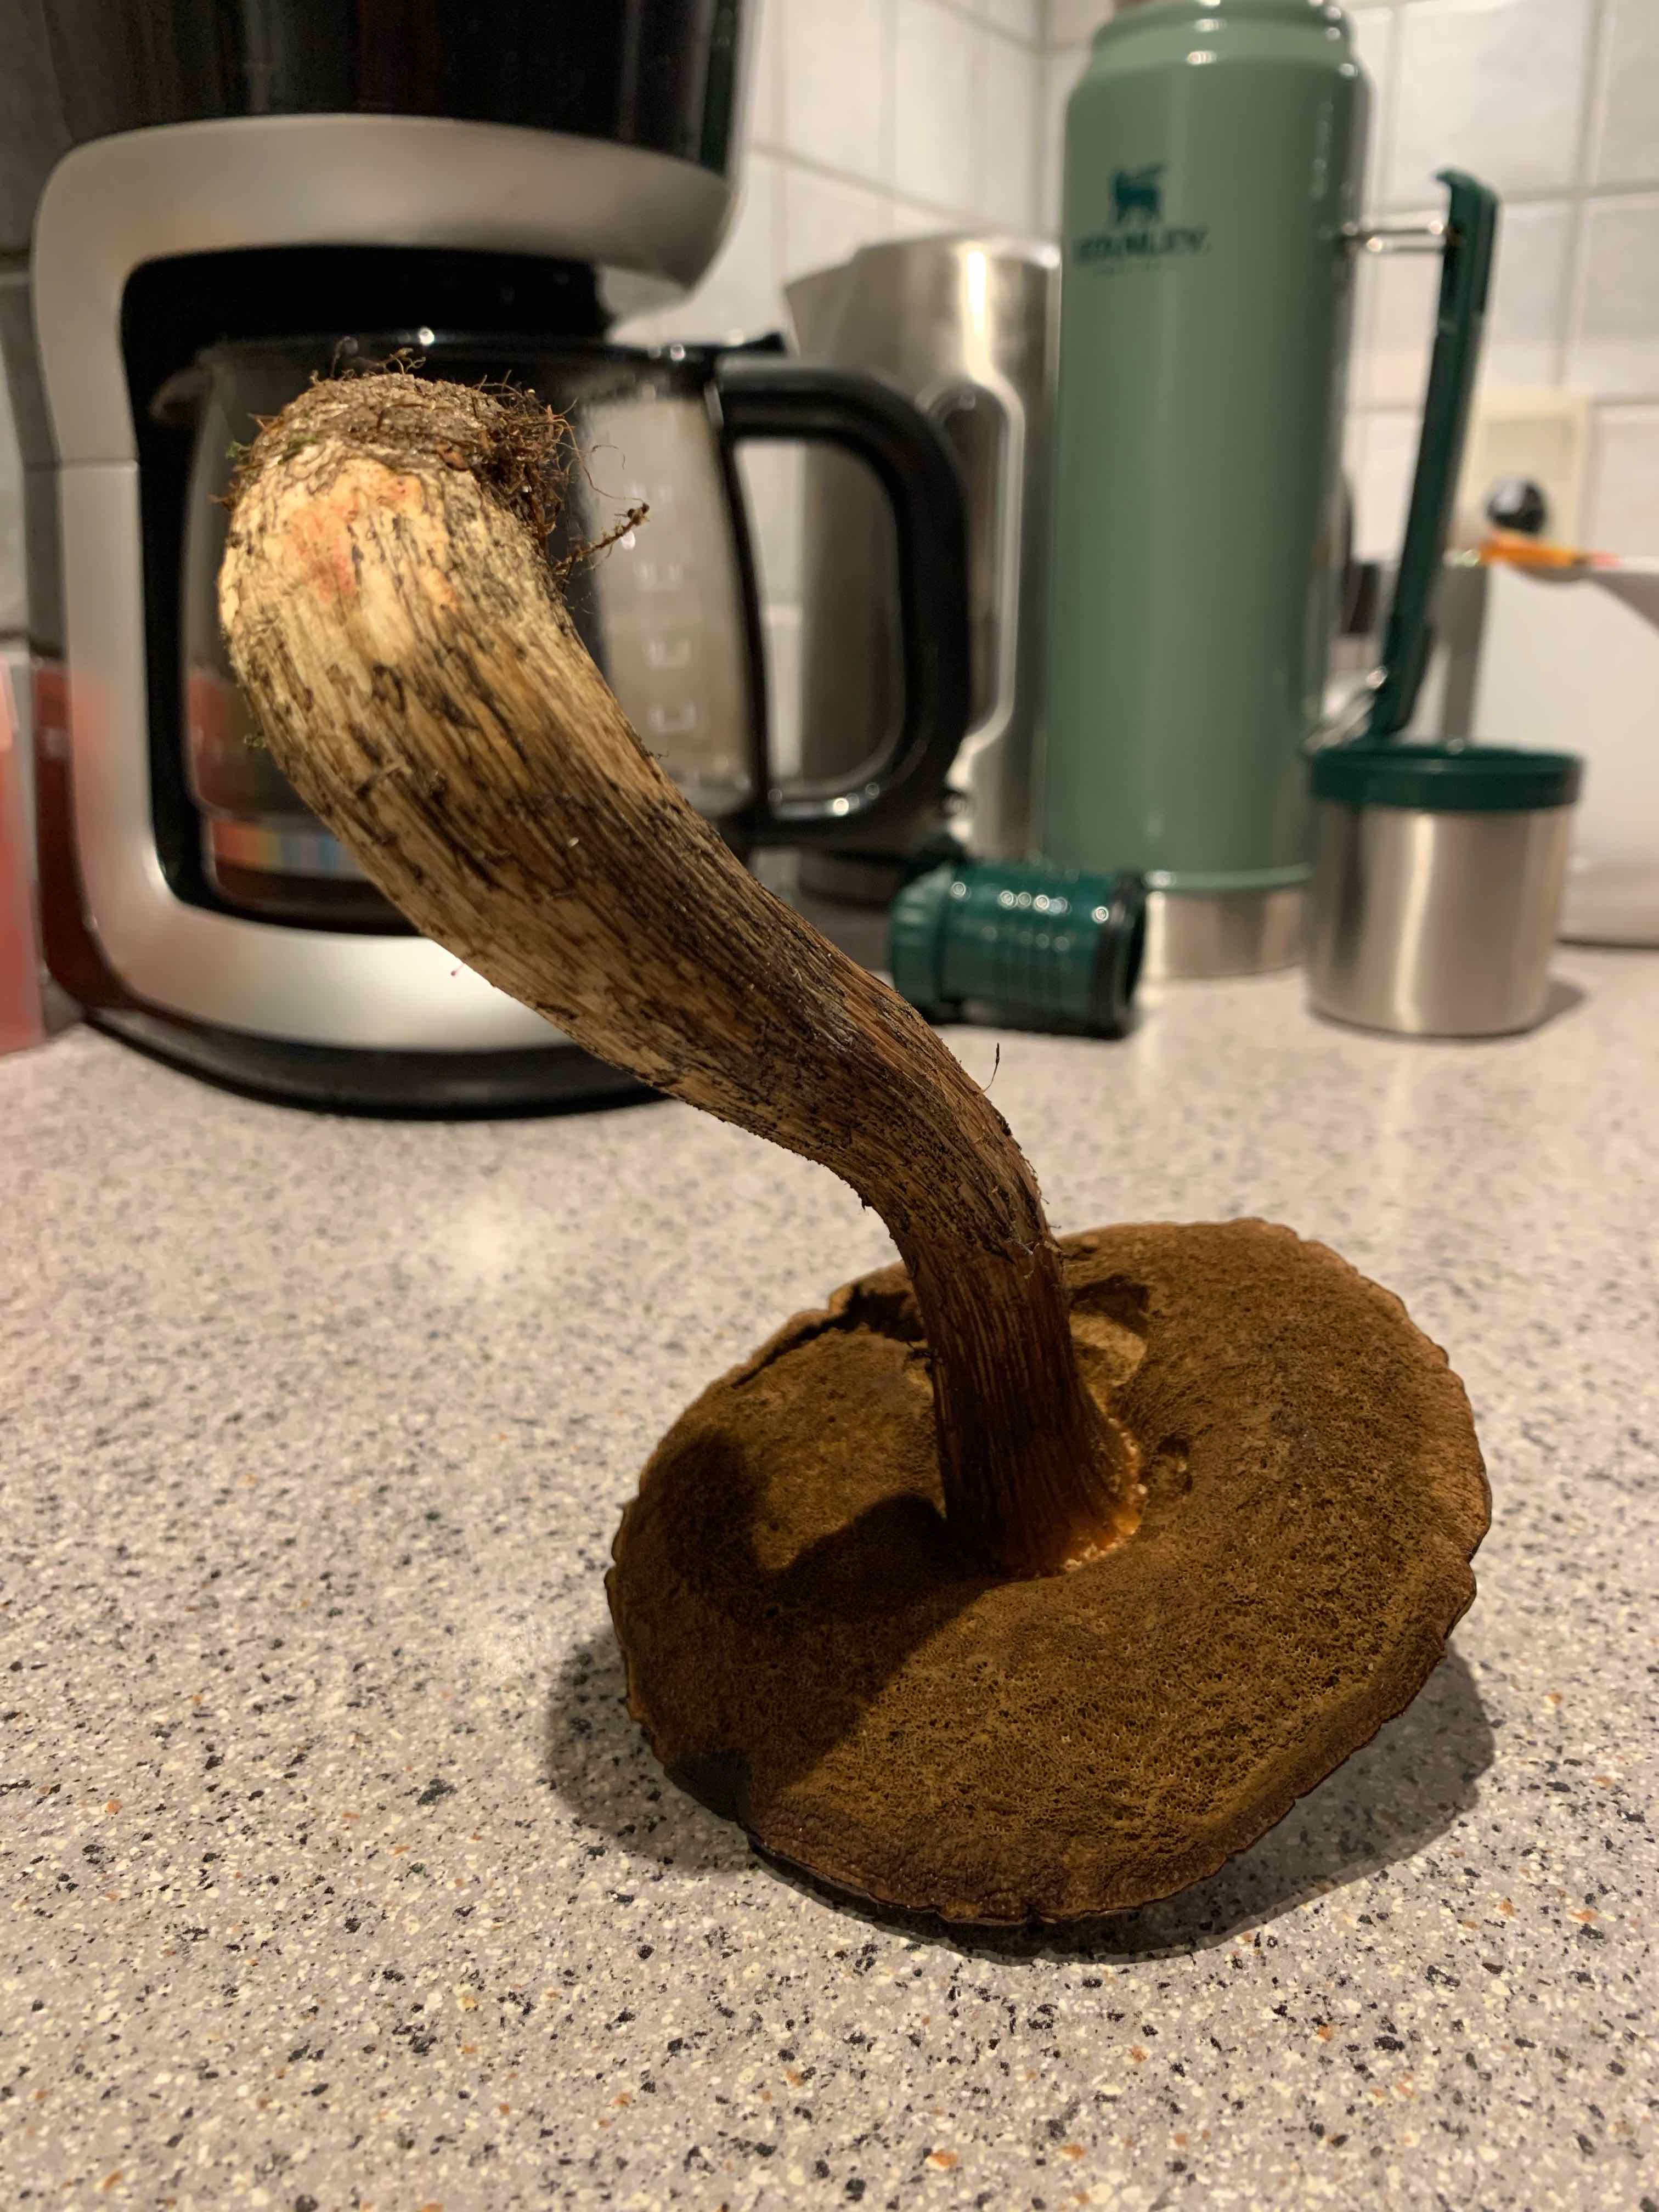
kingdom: Fungi
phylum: Basidiomycota
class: Agaricomycetes
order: Boletales
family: Boletaceae
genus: Leccinum
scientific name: Leccinum scabrum
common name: brun skælrørhat
